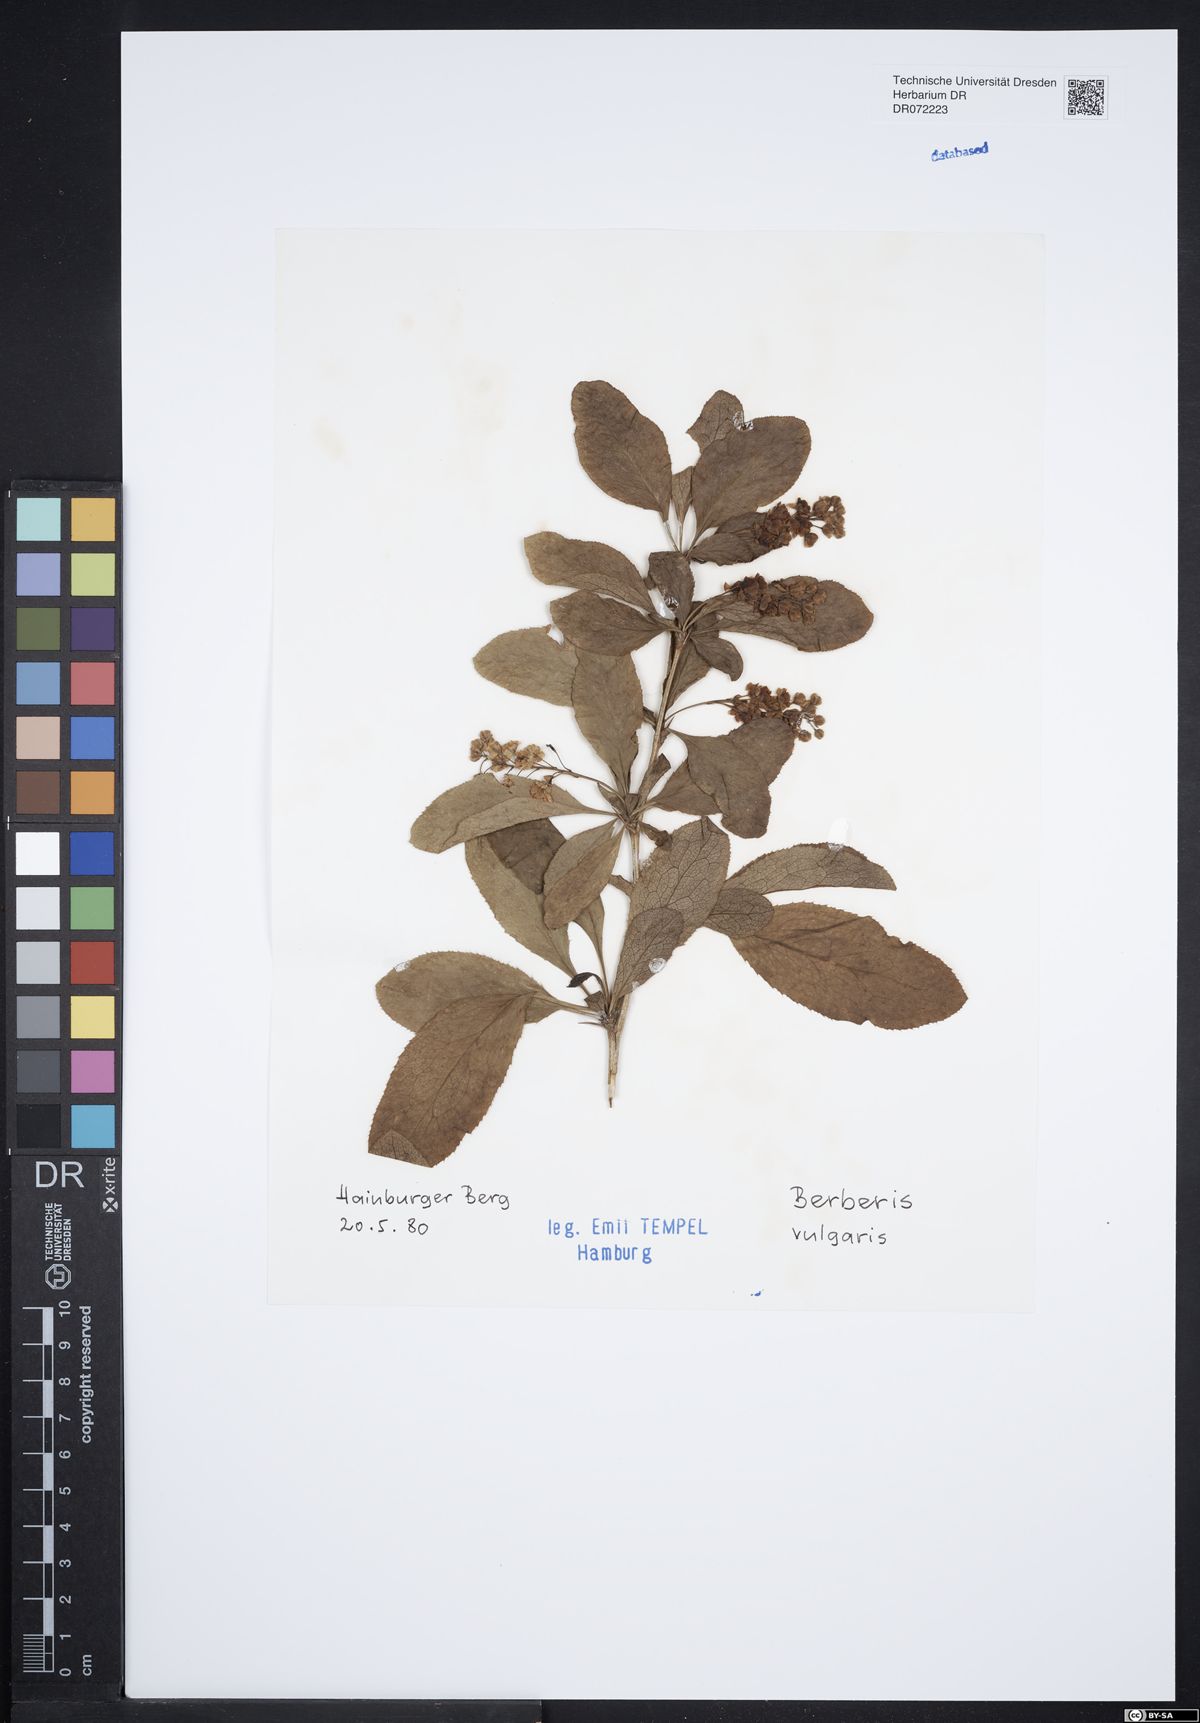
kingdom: Plantae
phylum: Tracheophyta
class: Magnoliopsida
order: Ranunculales
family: Berberidaceae
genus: Berberis
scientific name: Berberis vulgaris
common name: Barberry
